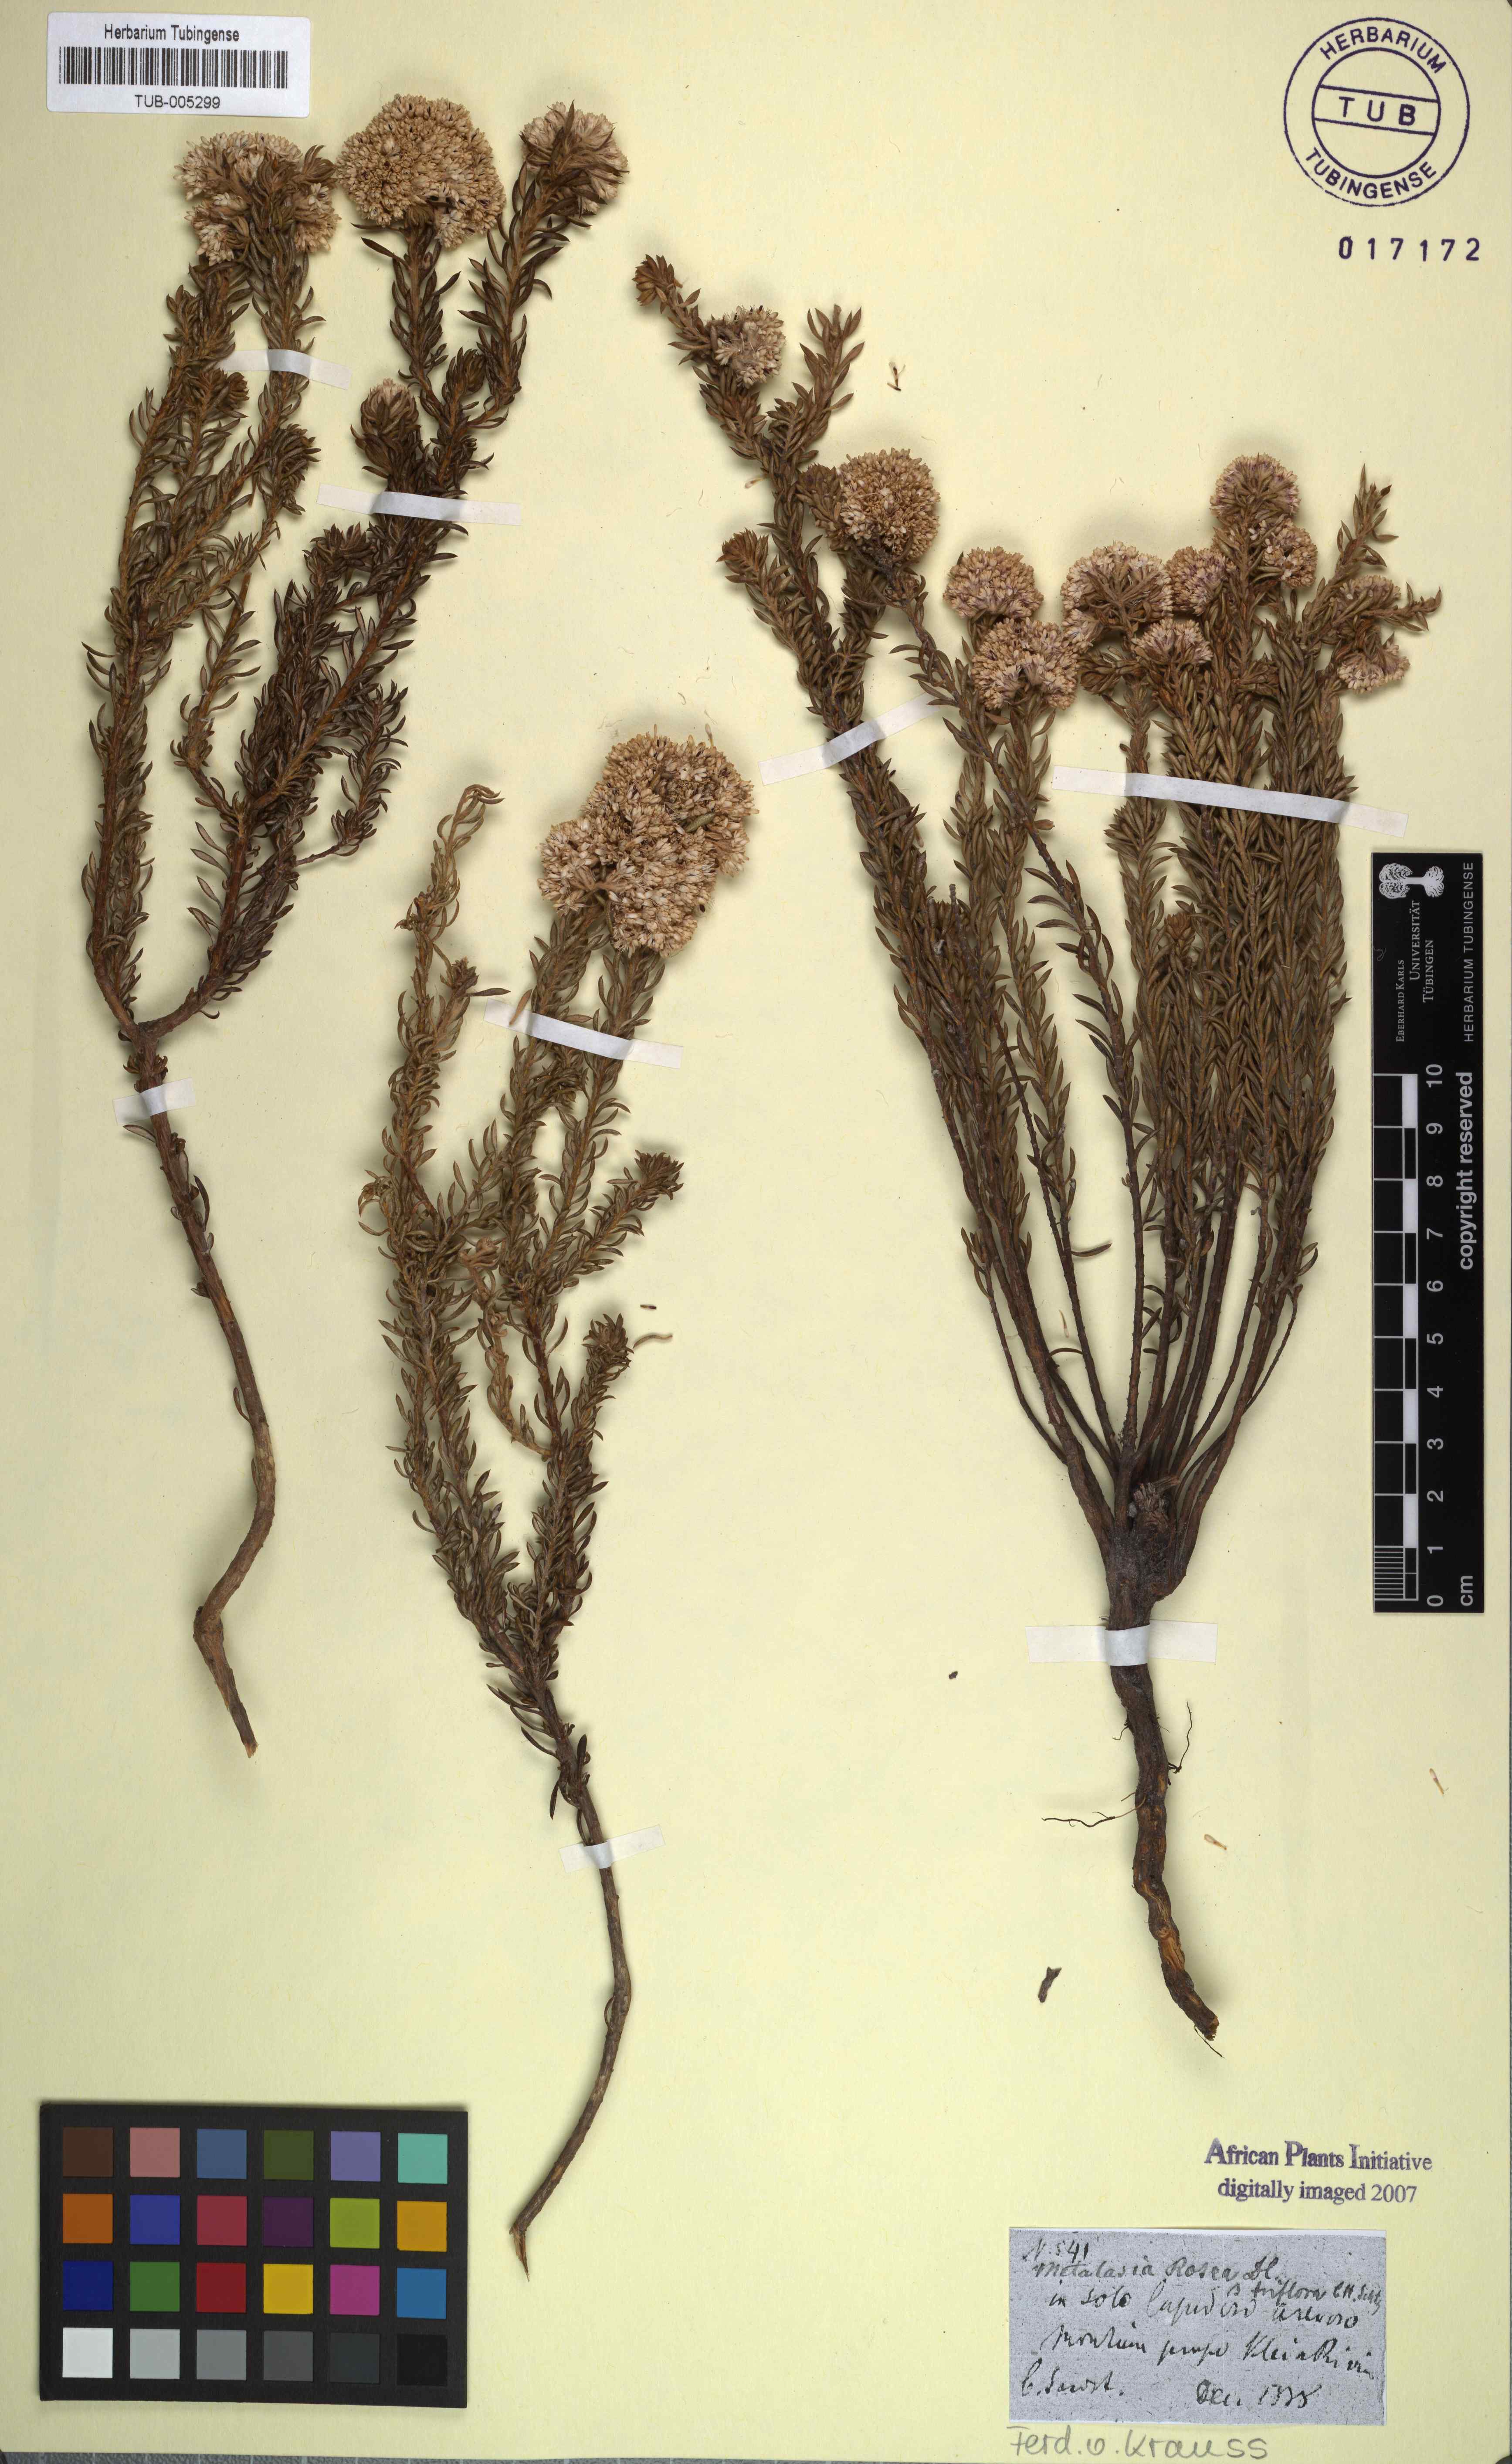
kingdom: Plantae
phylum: Tracheophyta
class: Magnoliopsida
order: Asterales
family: Asteraceae
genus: Metalasia
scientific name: Metalasia cephalotes
